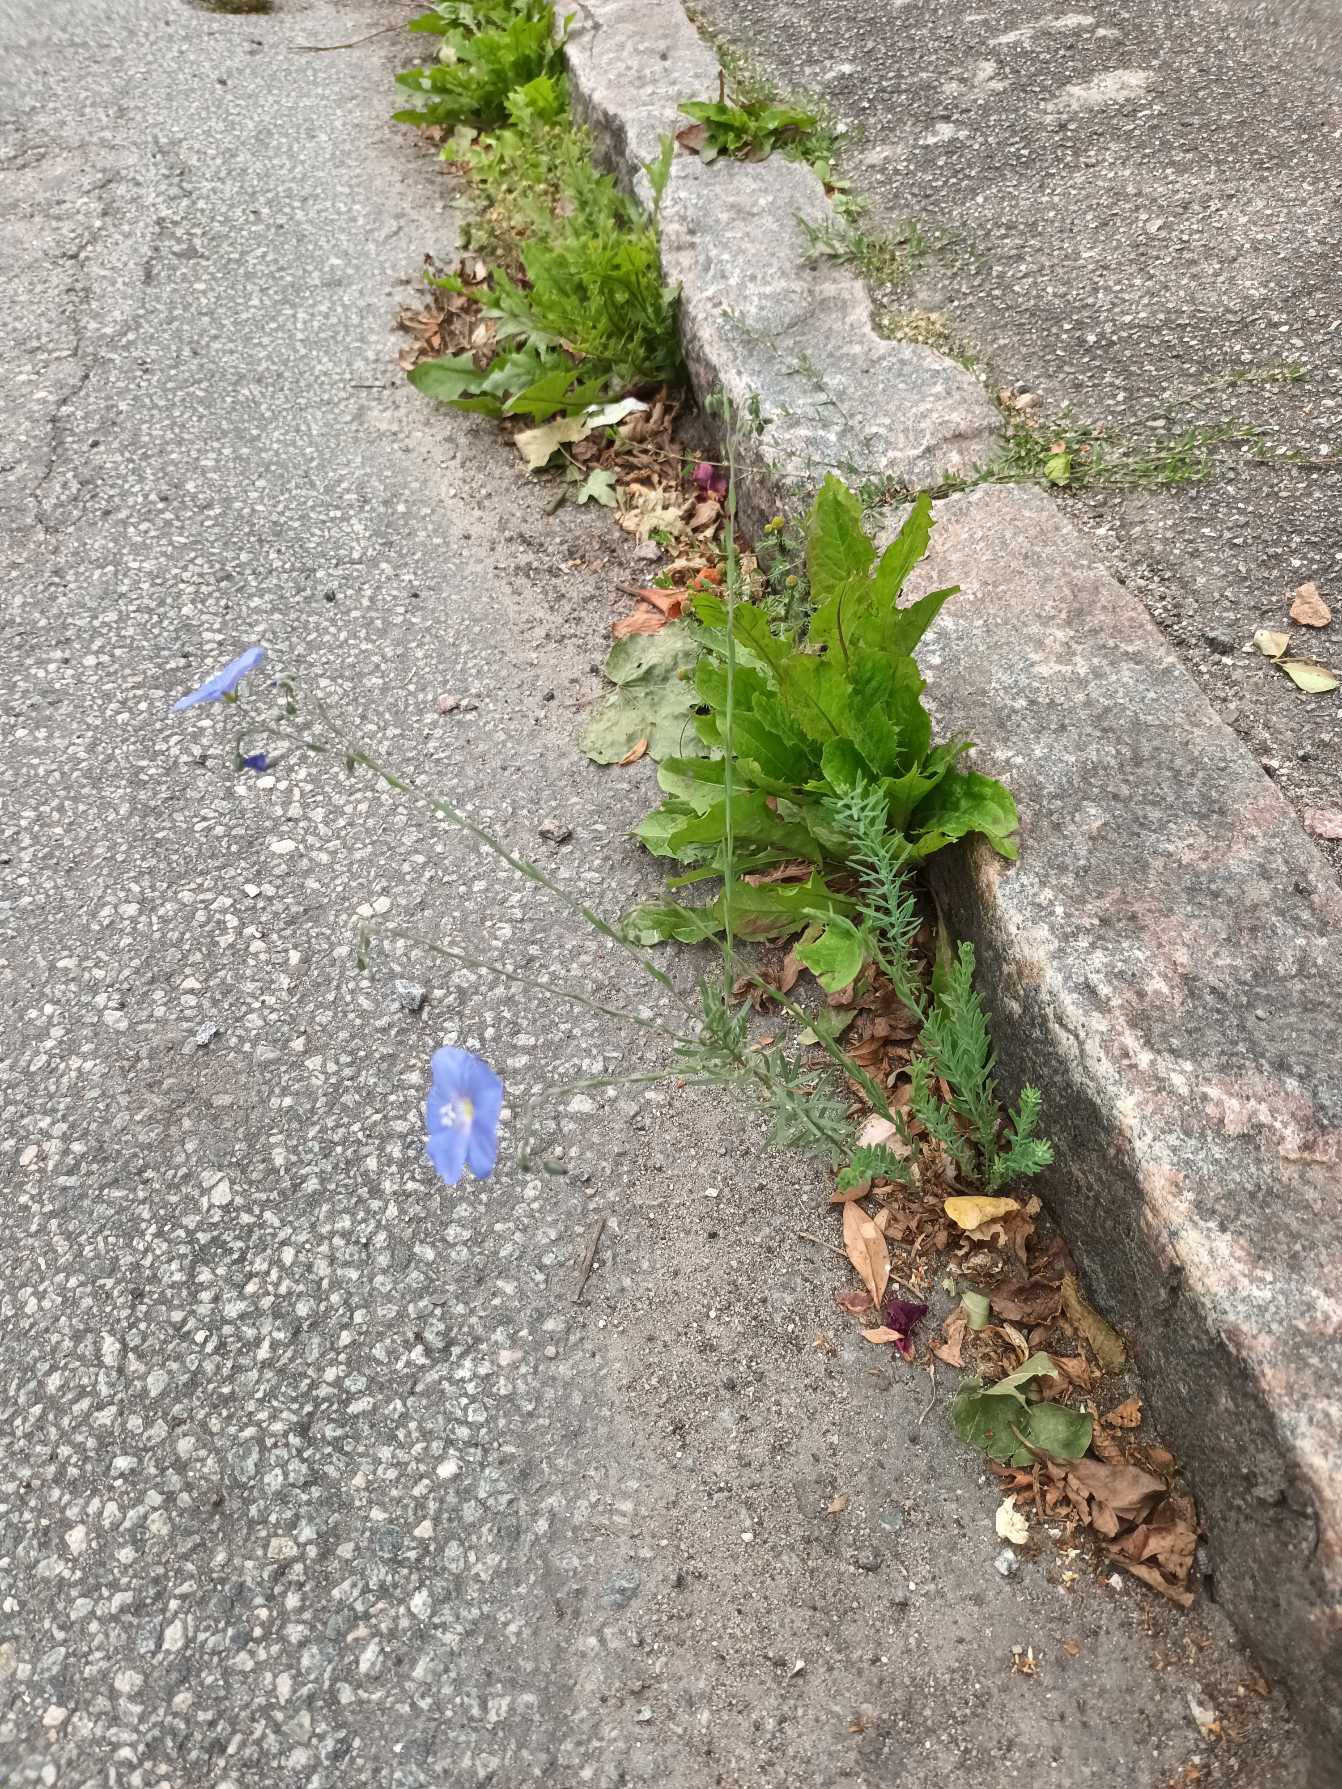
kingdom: Plantae
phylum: Tracheophyta
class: Magnoliopsida
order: Malpighiales
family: Linaceae
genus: Linum
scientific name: Linum austriacum
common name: Østrigsk hør
